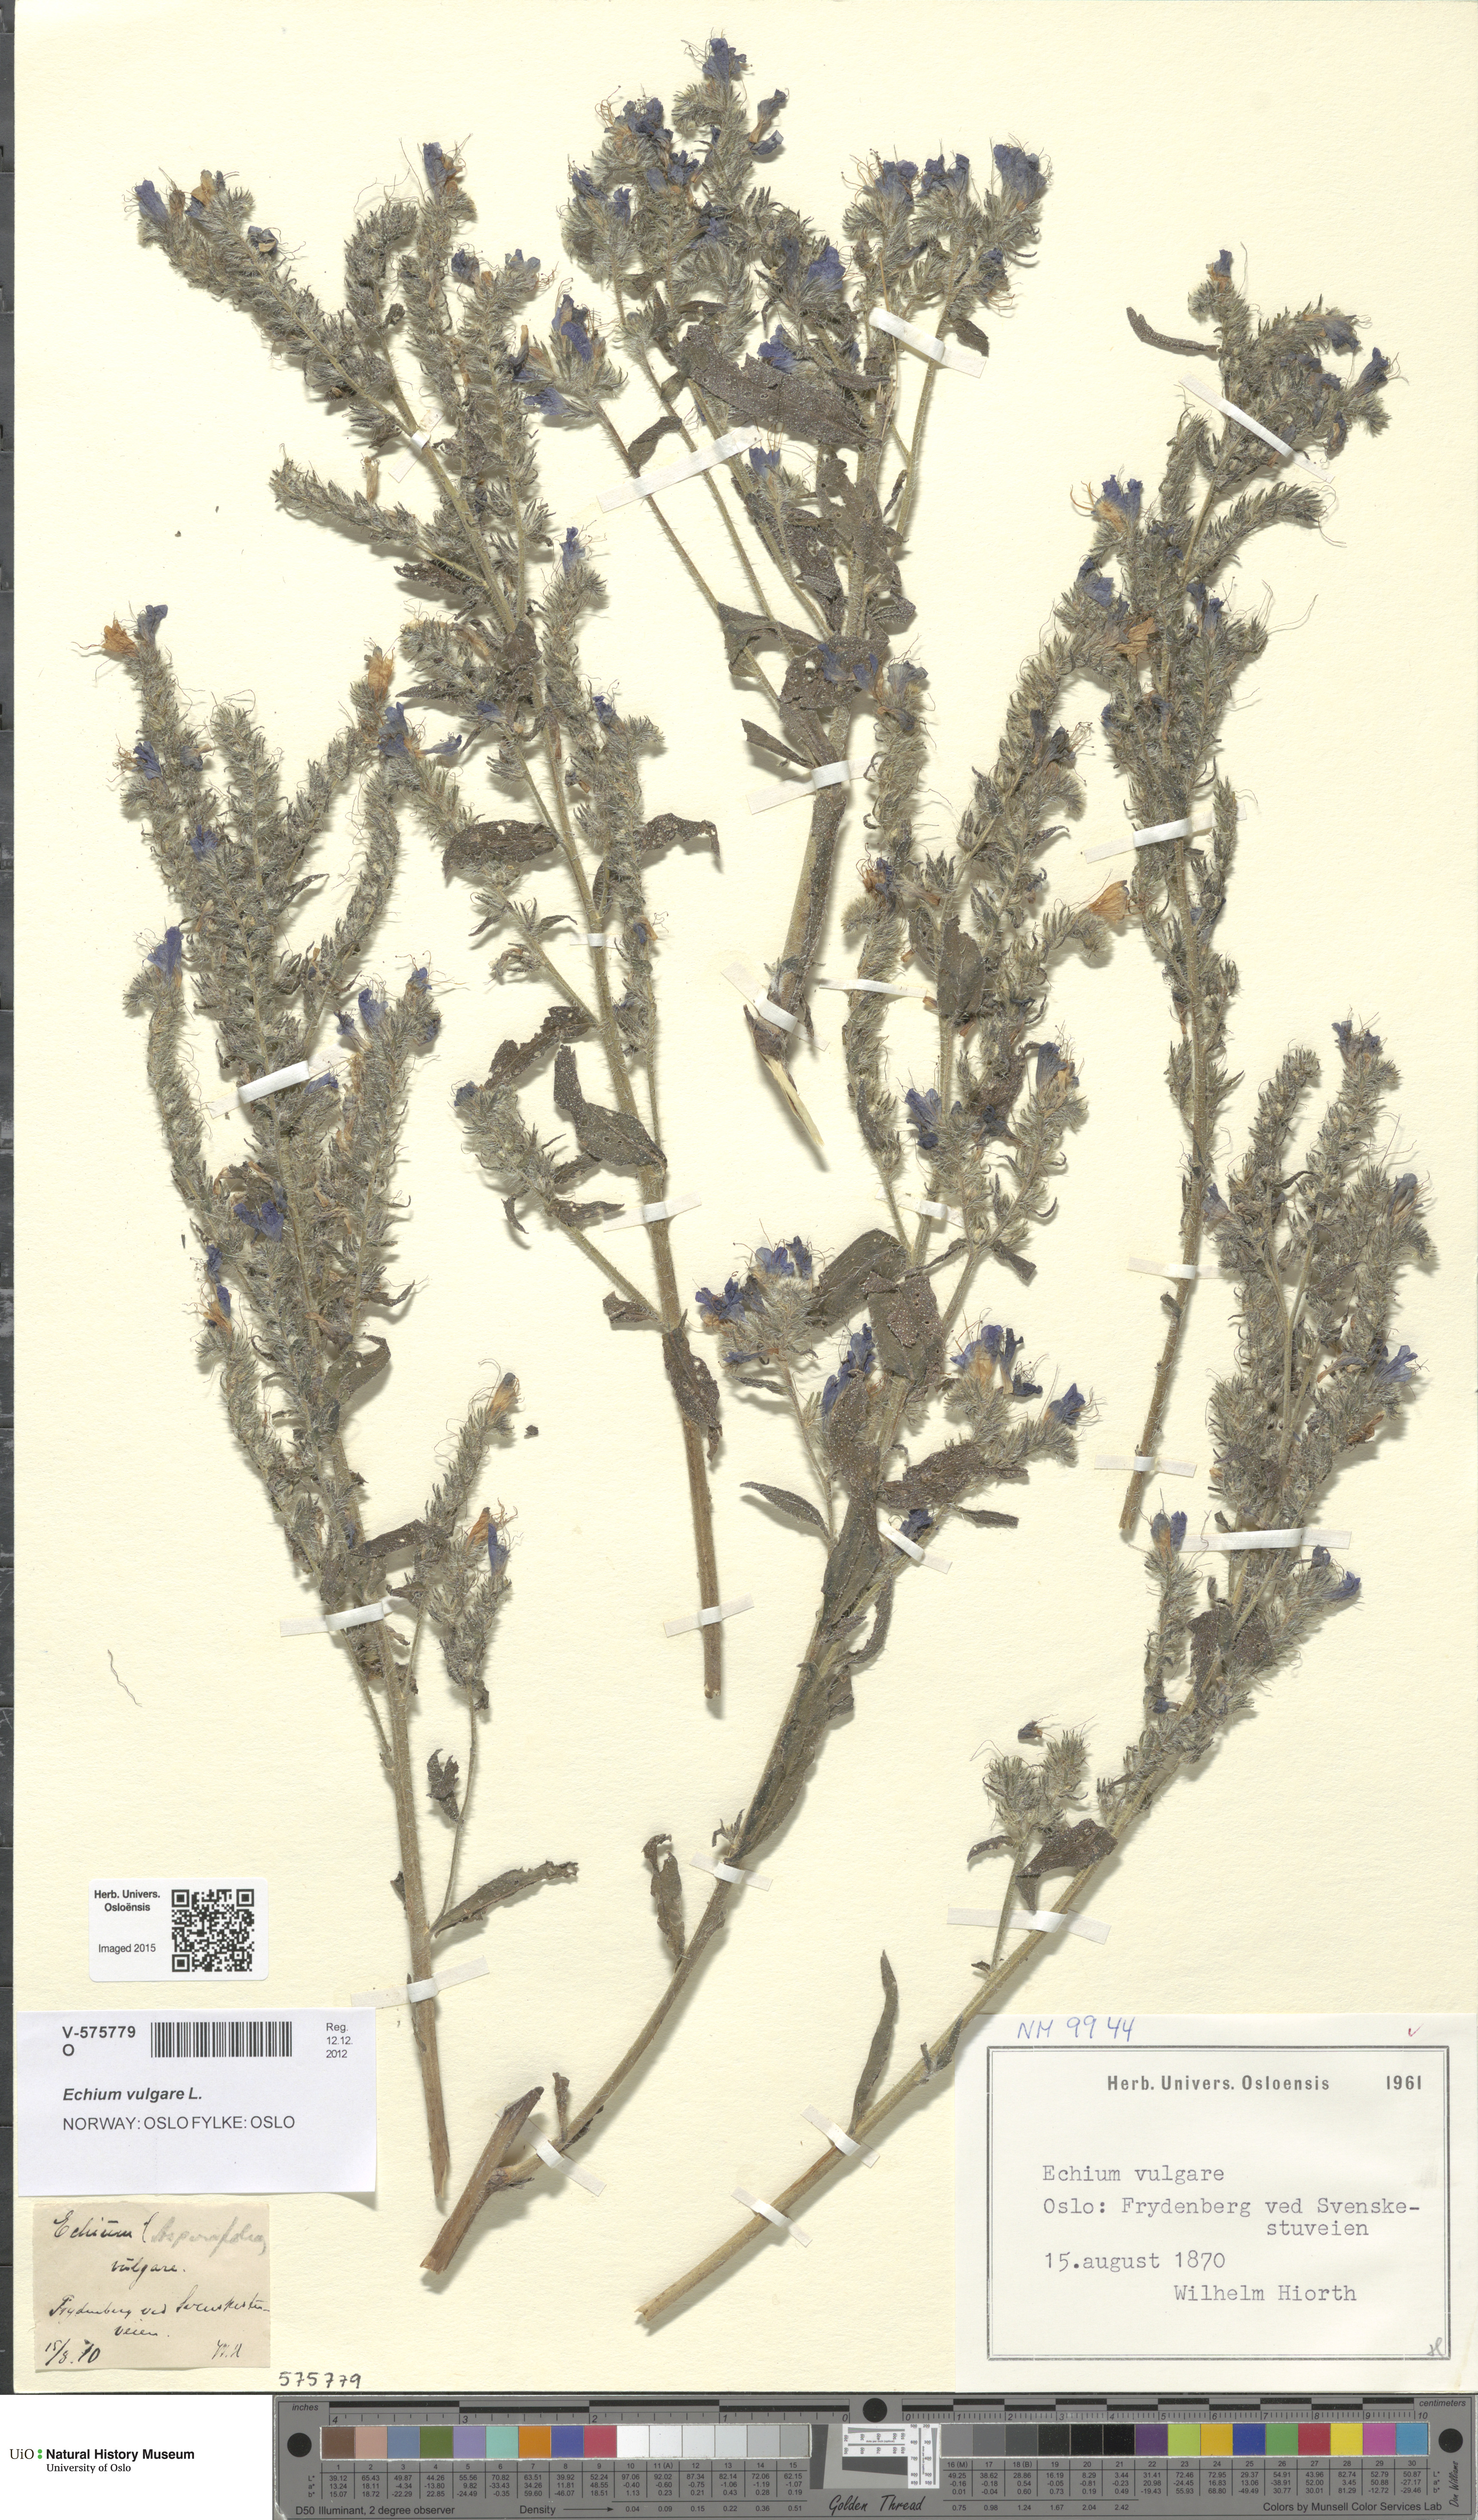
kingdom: Plantae
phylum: Tracheophyta
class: Magnoliopsida
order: Boraginales
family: Boraginaceae
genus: Echium
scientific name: Echium vulgare
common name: Common viper's bugloss
